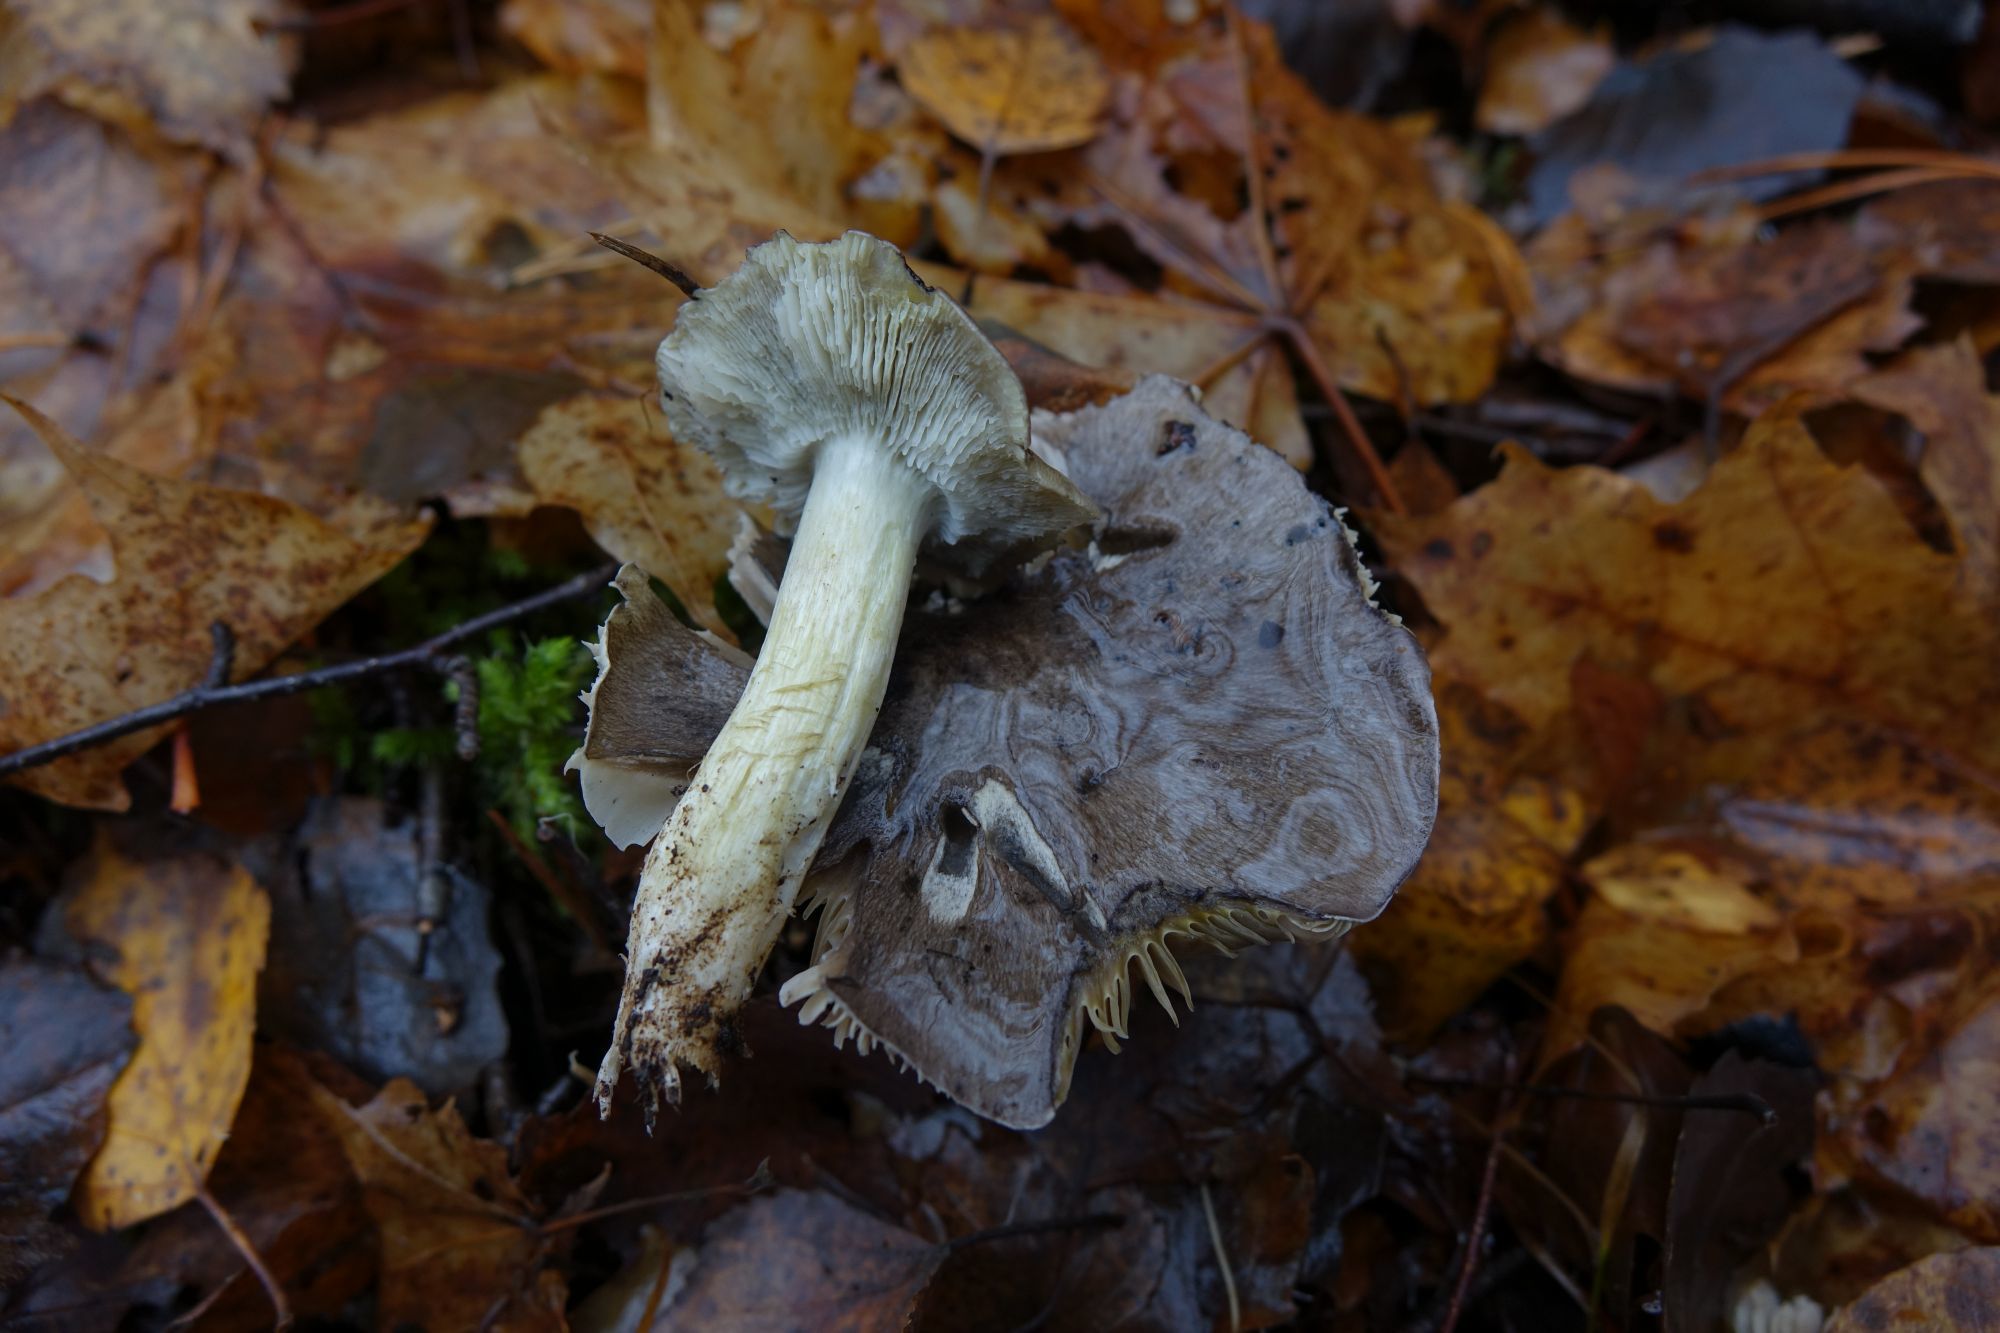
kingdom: Fungi
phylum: Basidiomycota
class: Agaricomycetes
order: Agaricales
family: Tricholomataceae
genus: Tricholoma
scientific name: Tricholoma portentosum
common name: Coalman
